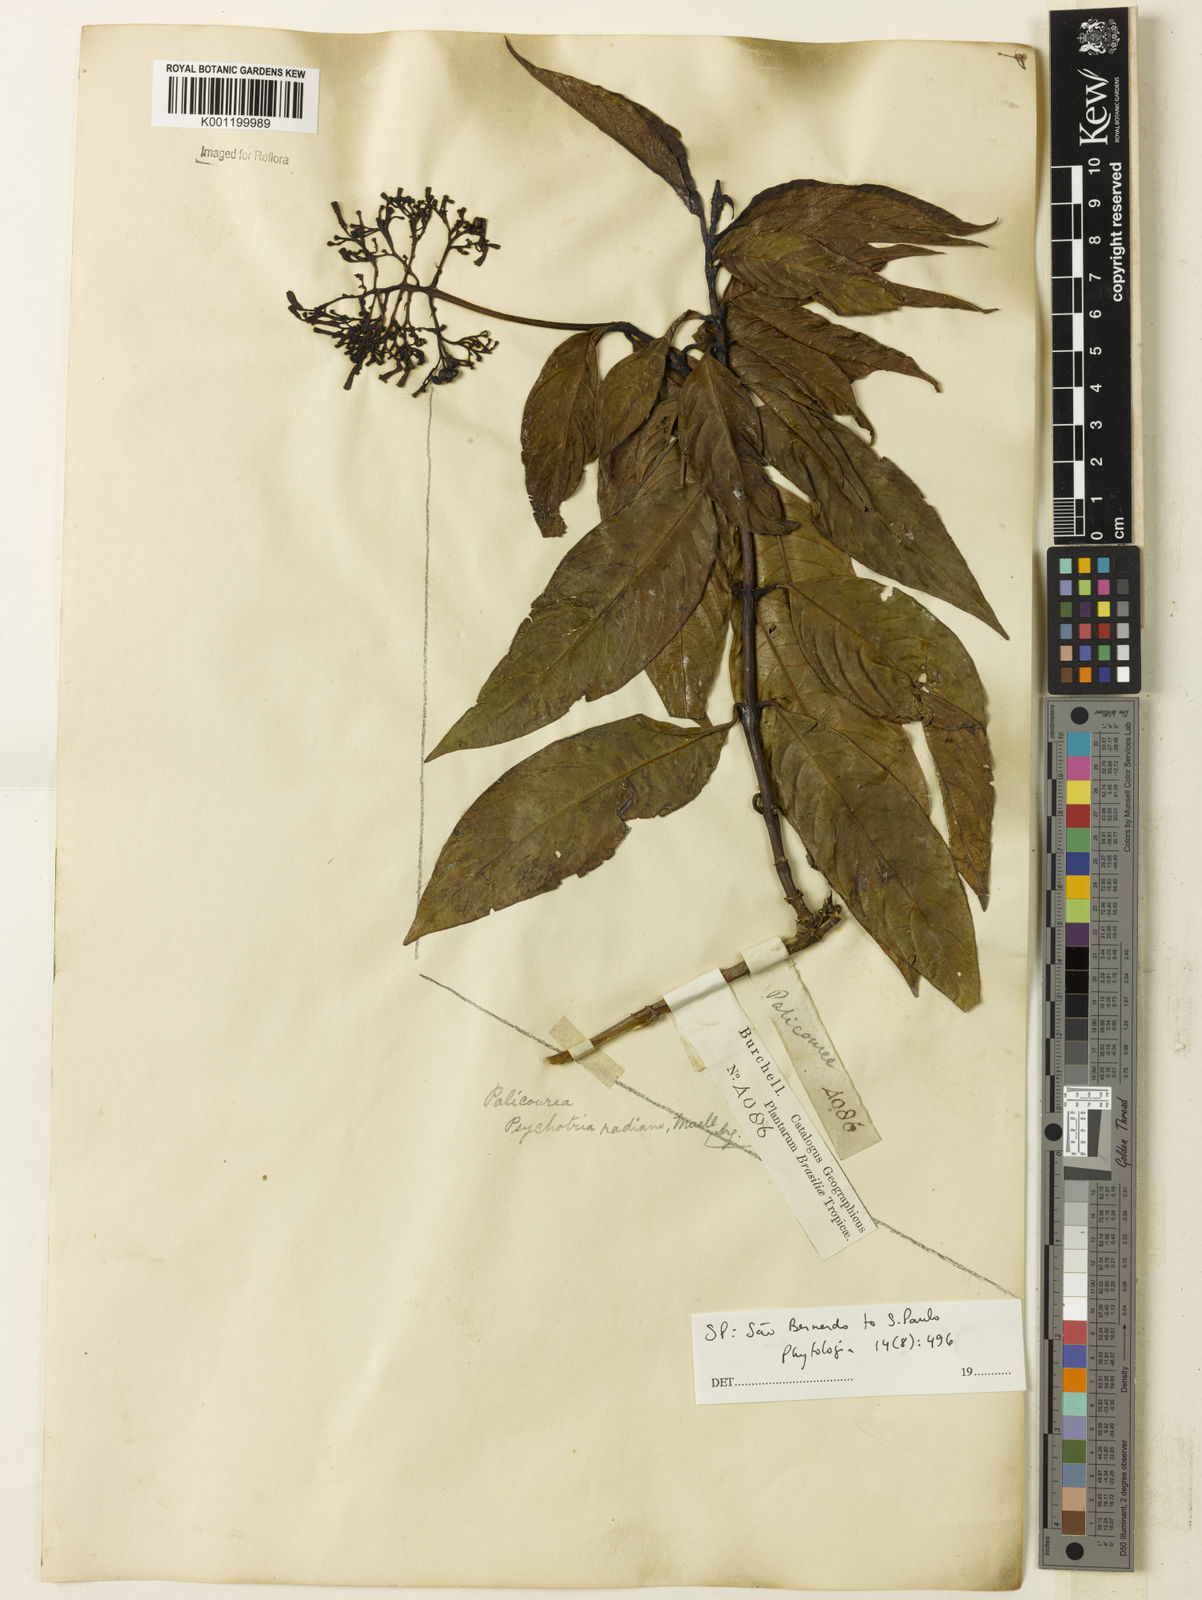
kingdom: Plantae
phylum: Tracheophyta
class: Magnoliopsida
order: Gentianales
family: Rubiaceae
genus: Palicourea
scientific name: Palicourea
